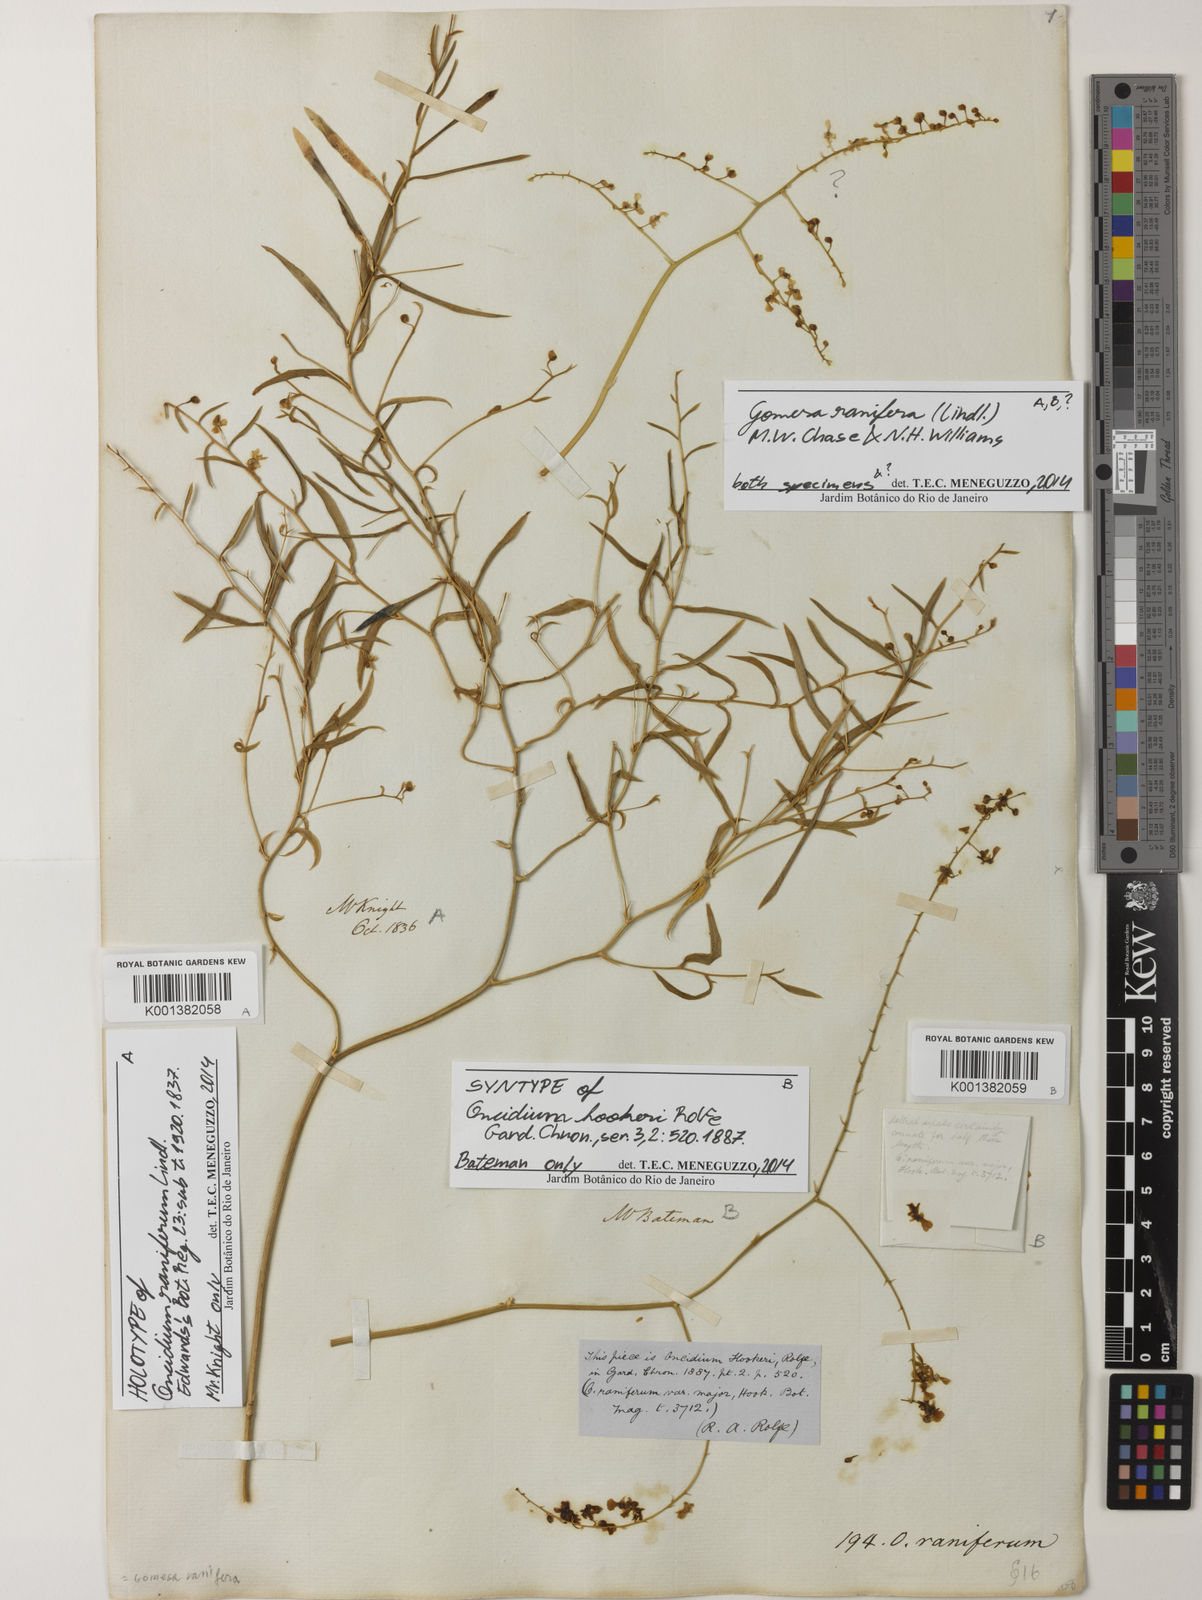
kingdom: Plantae
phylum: Tracheophyta
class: Liliopsida
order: Asparagales
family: Orchidaceae
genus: Gomesa
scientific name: Gomesa ranifera
